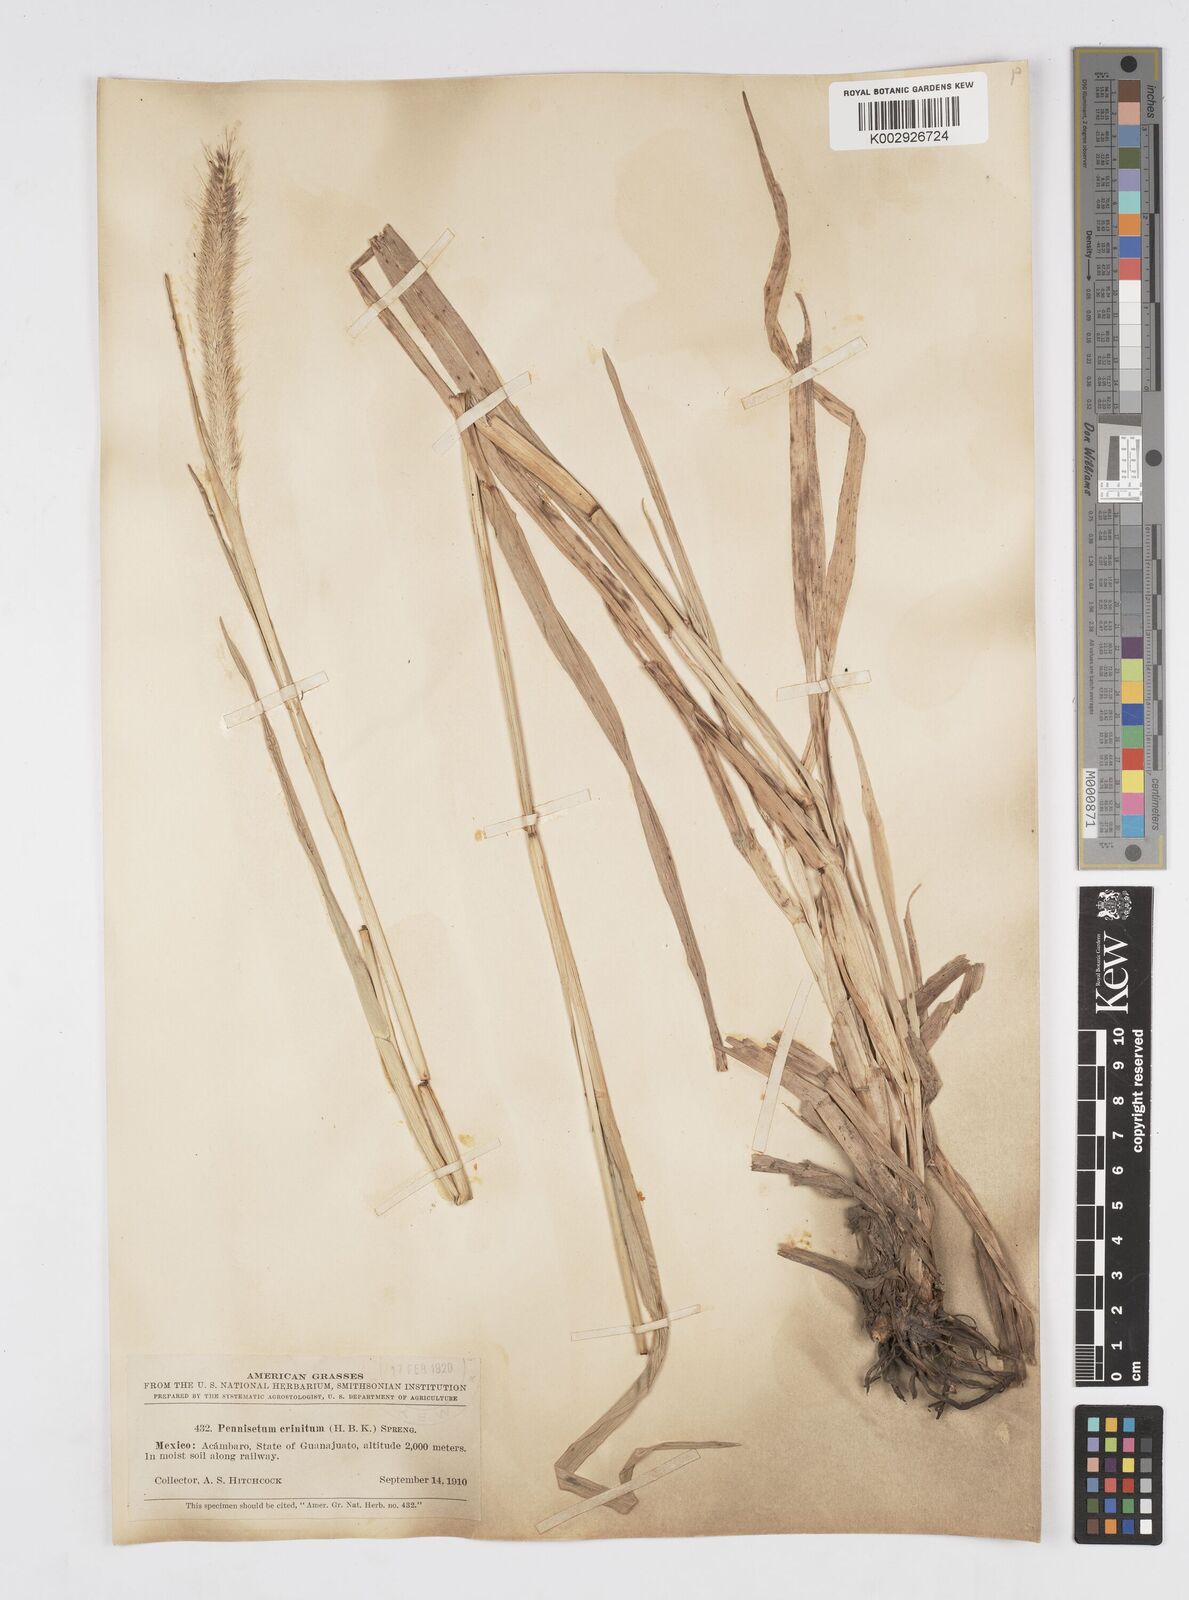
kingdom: Plantae
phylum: Tracheophyta
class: Liliopsida
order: Poales
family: Poaceae
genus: Cenchrus
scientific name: Cenchrus michoacanus
